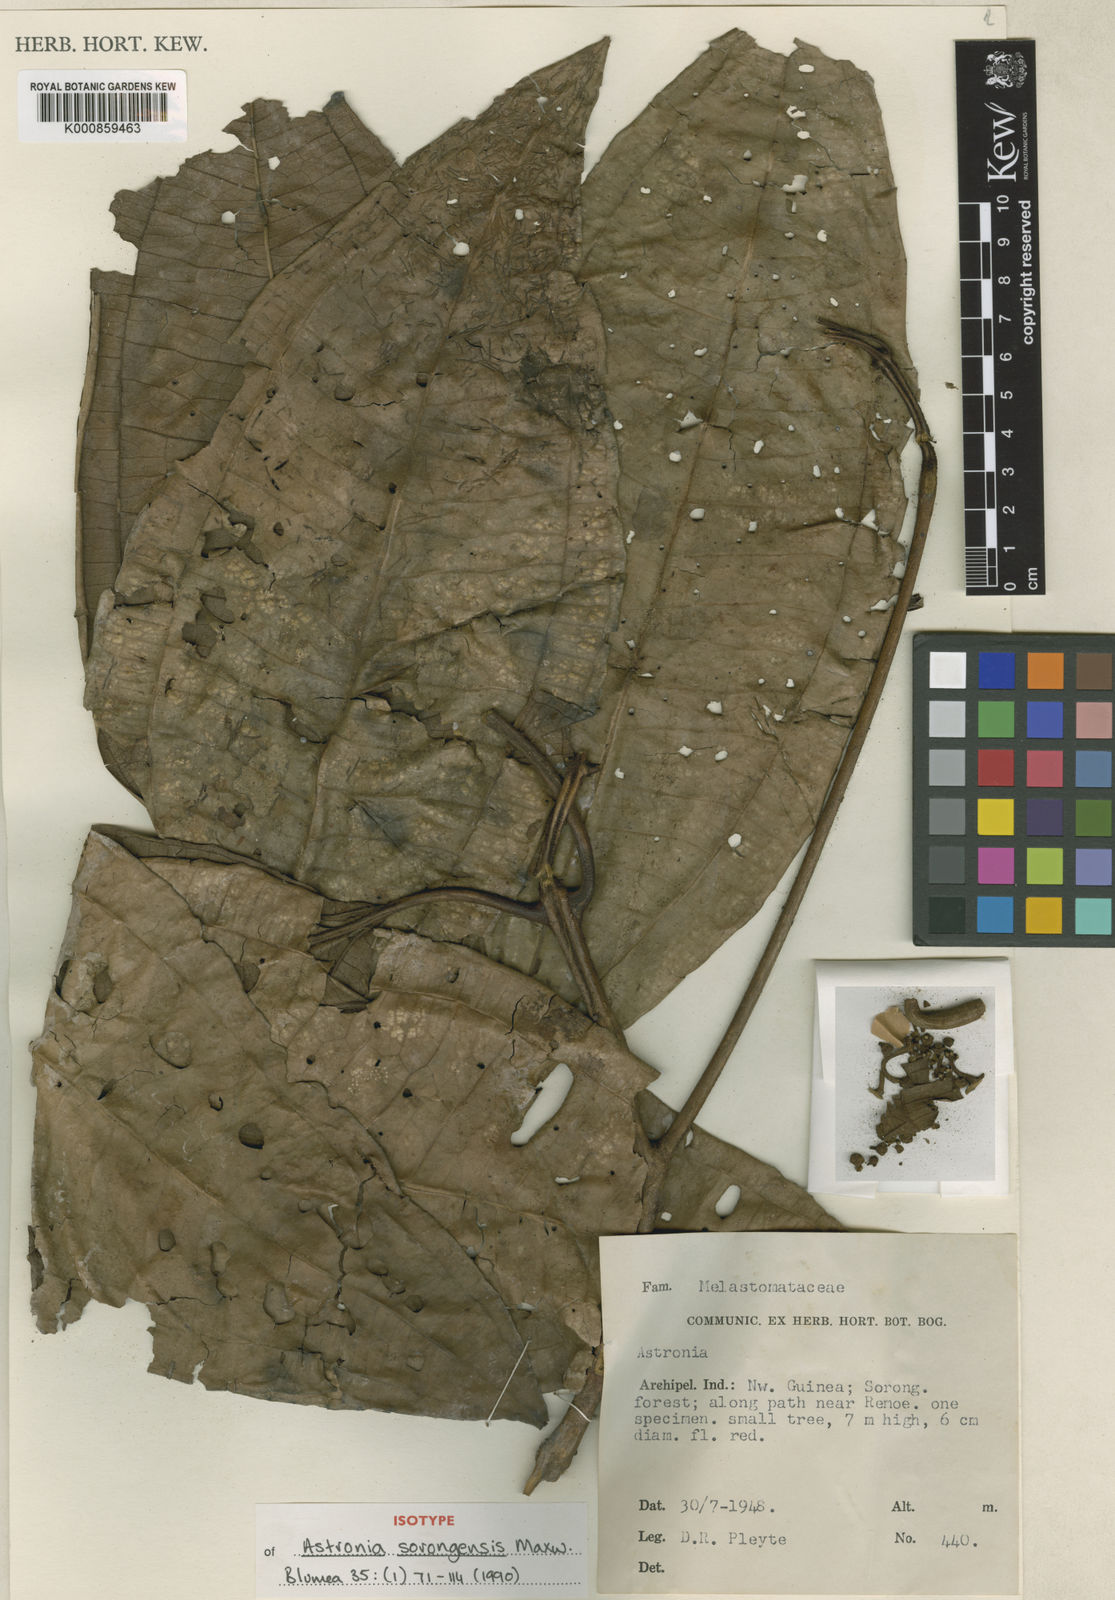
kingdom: Plantae
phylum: Tracheophyta
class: Magnoliopsida
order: Myrtales
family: Melastomataceae
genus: Astronia
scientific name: Astronia sorongensis
